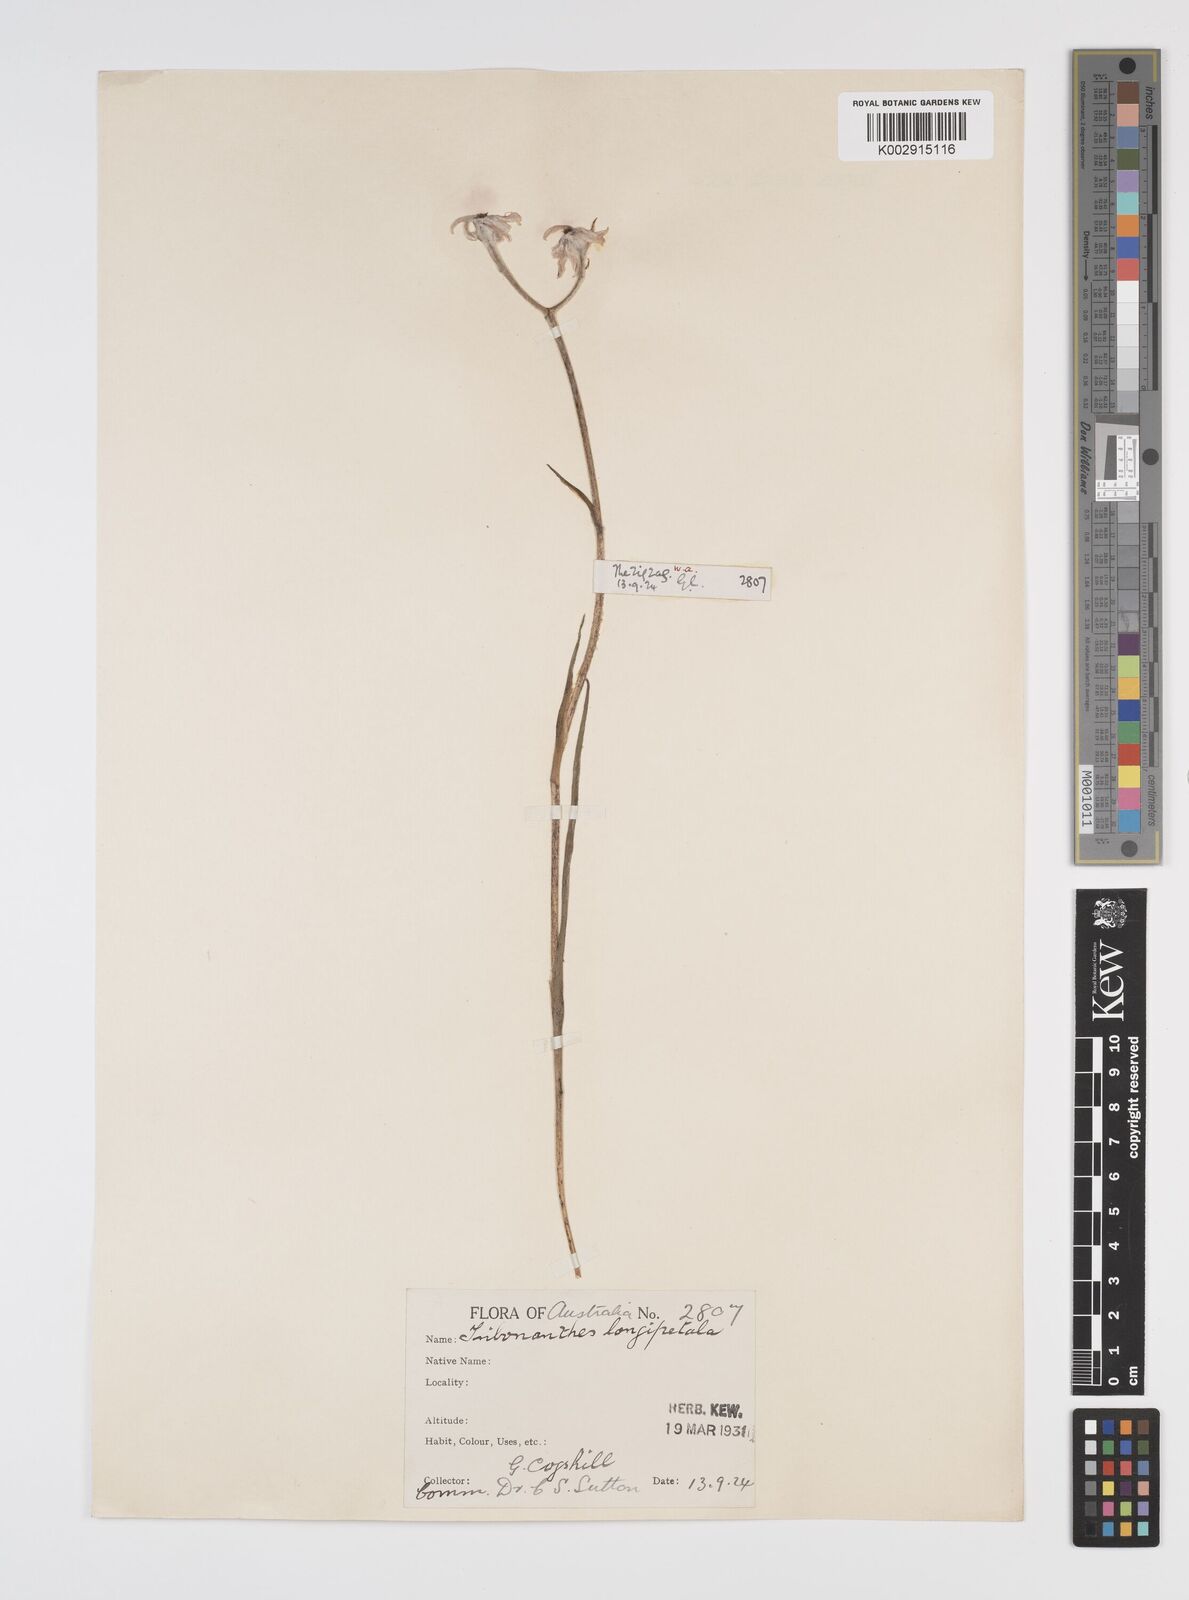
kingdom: Plantae
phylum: Tracheophyta
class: Liliopsida
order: Commelinales
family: Haemodoraceae
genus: Tribonanthes
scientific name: Tribonanthes longipetala
